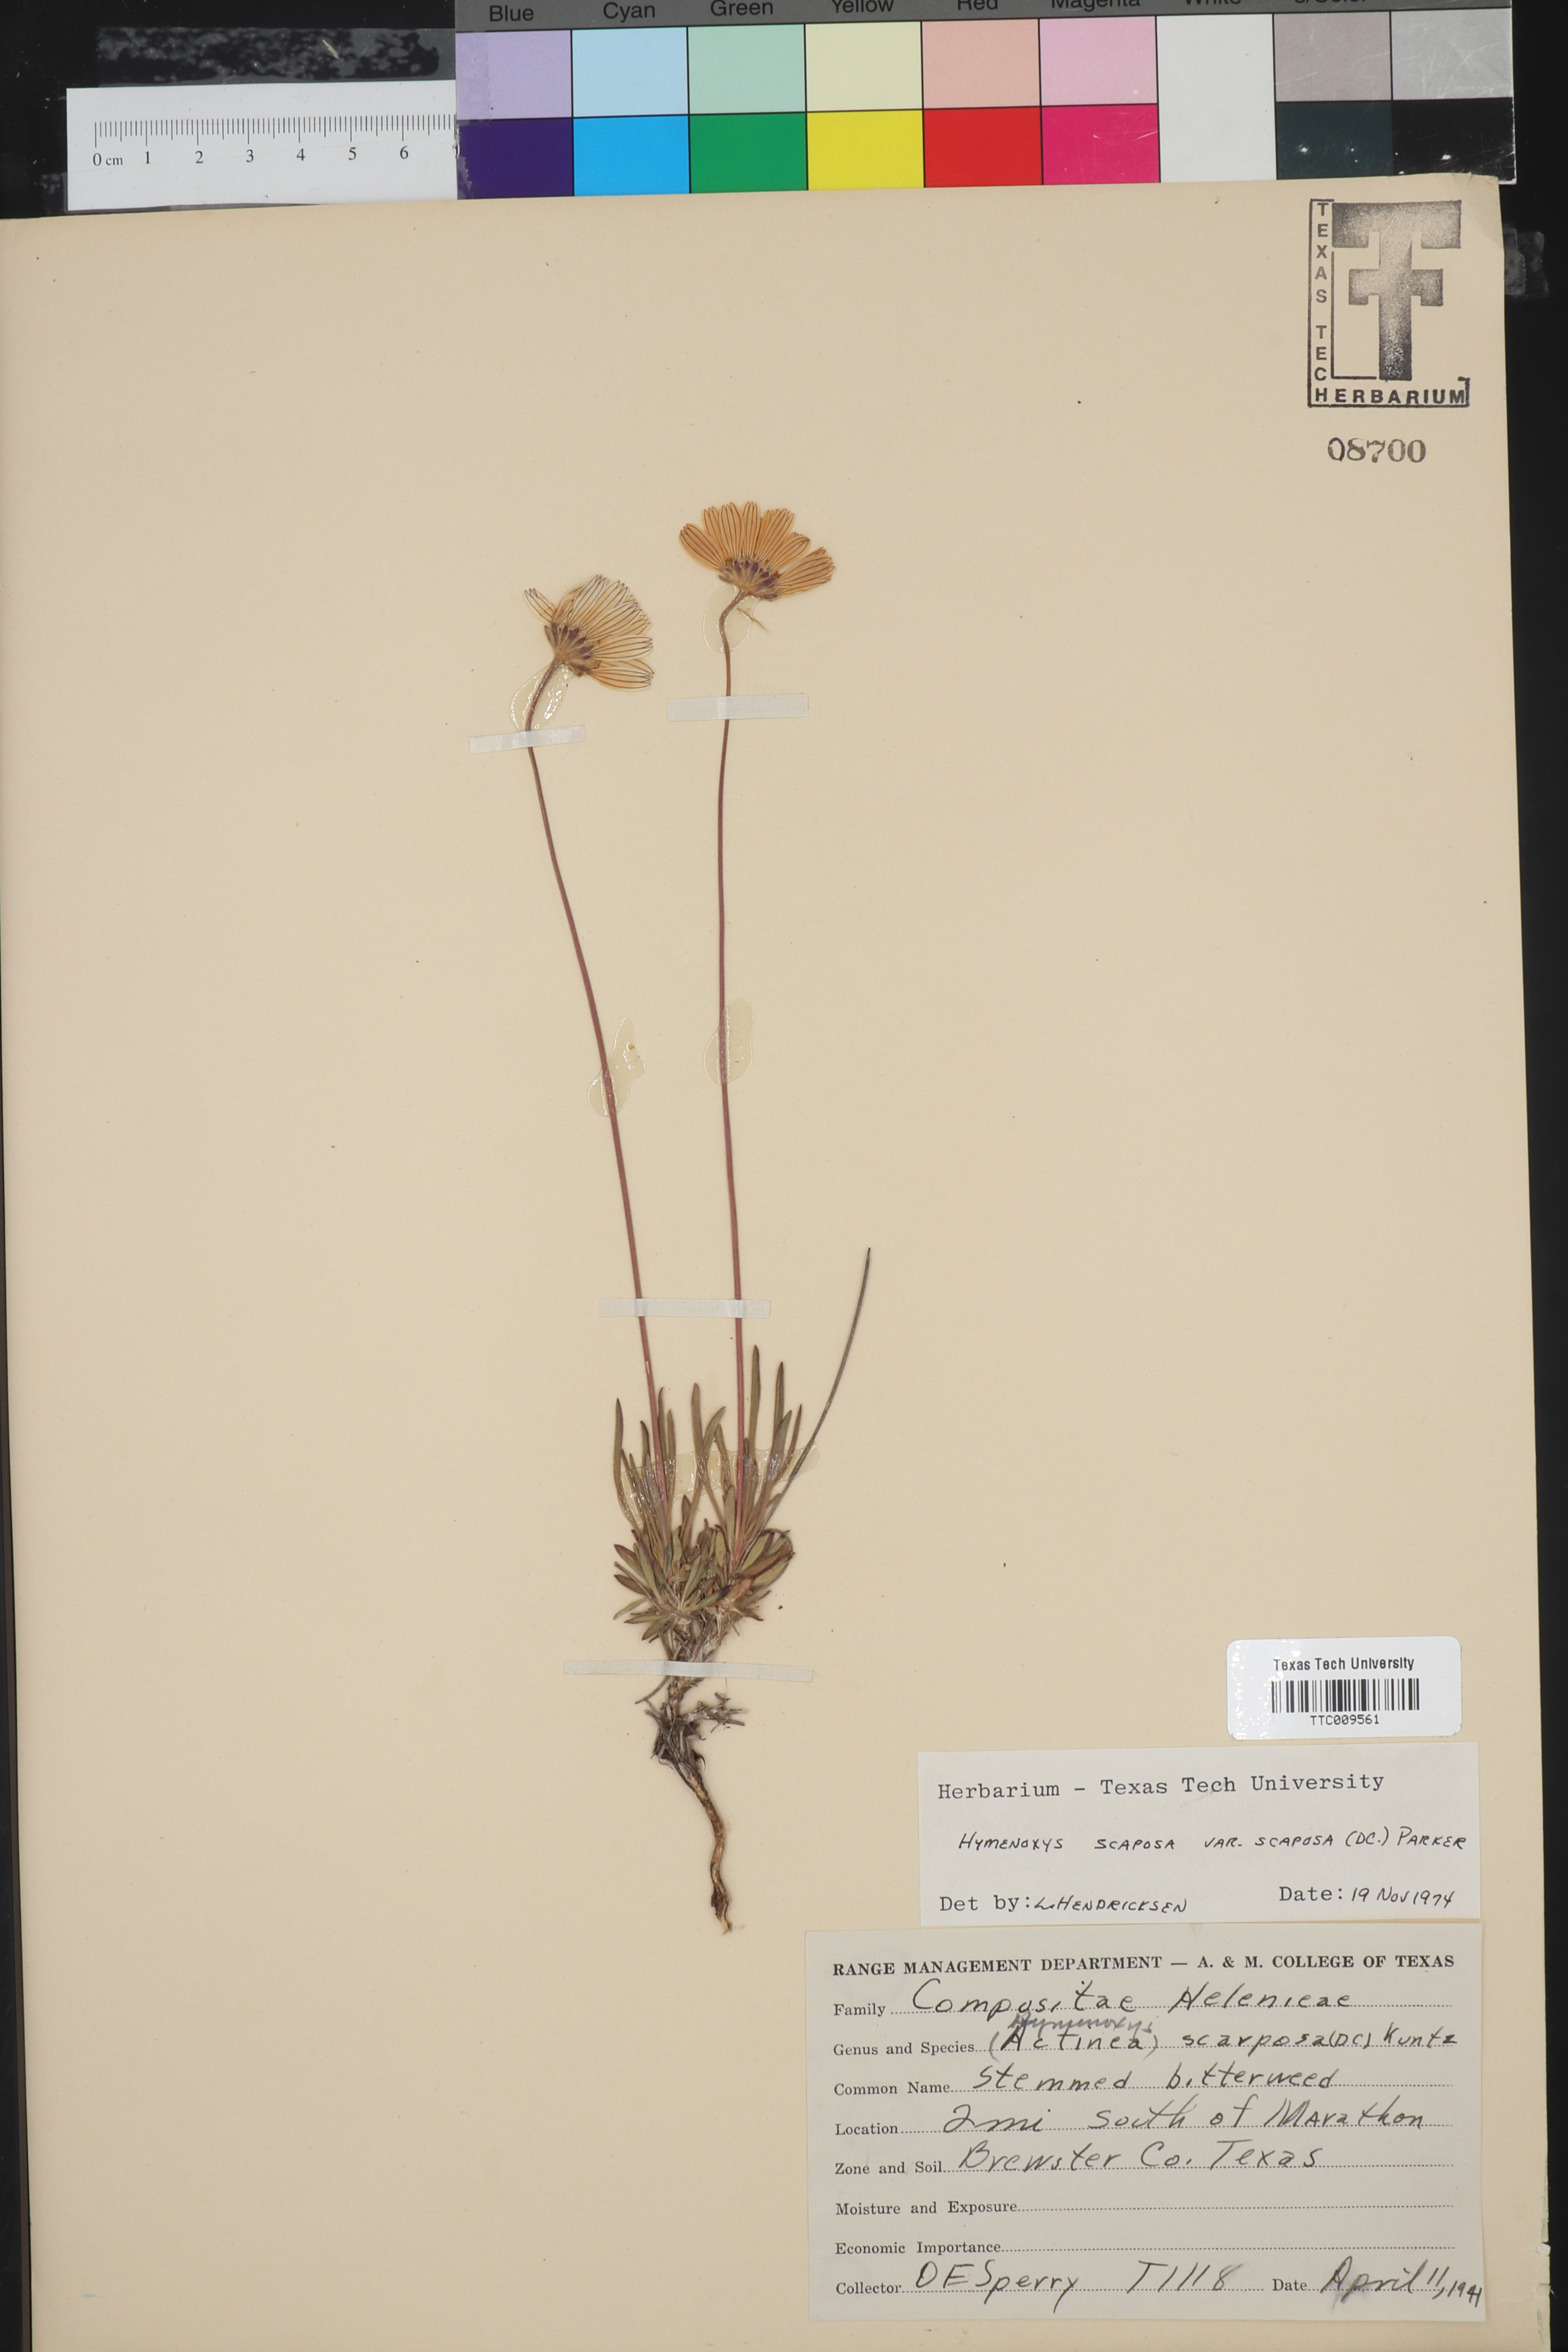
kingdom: Plantae
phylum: Tracheophyta
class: Magnoliopsida
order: Asterales
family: Asteraceae
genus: Tetraneuris
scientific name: Tetraneuris scaposa
